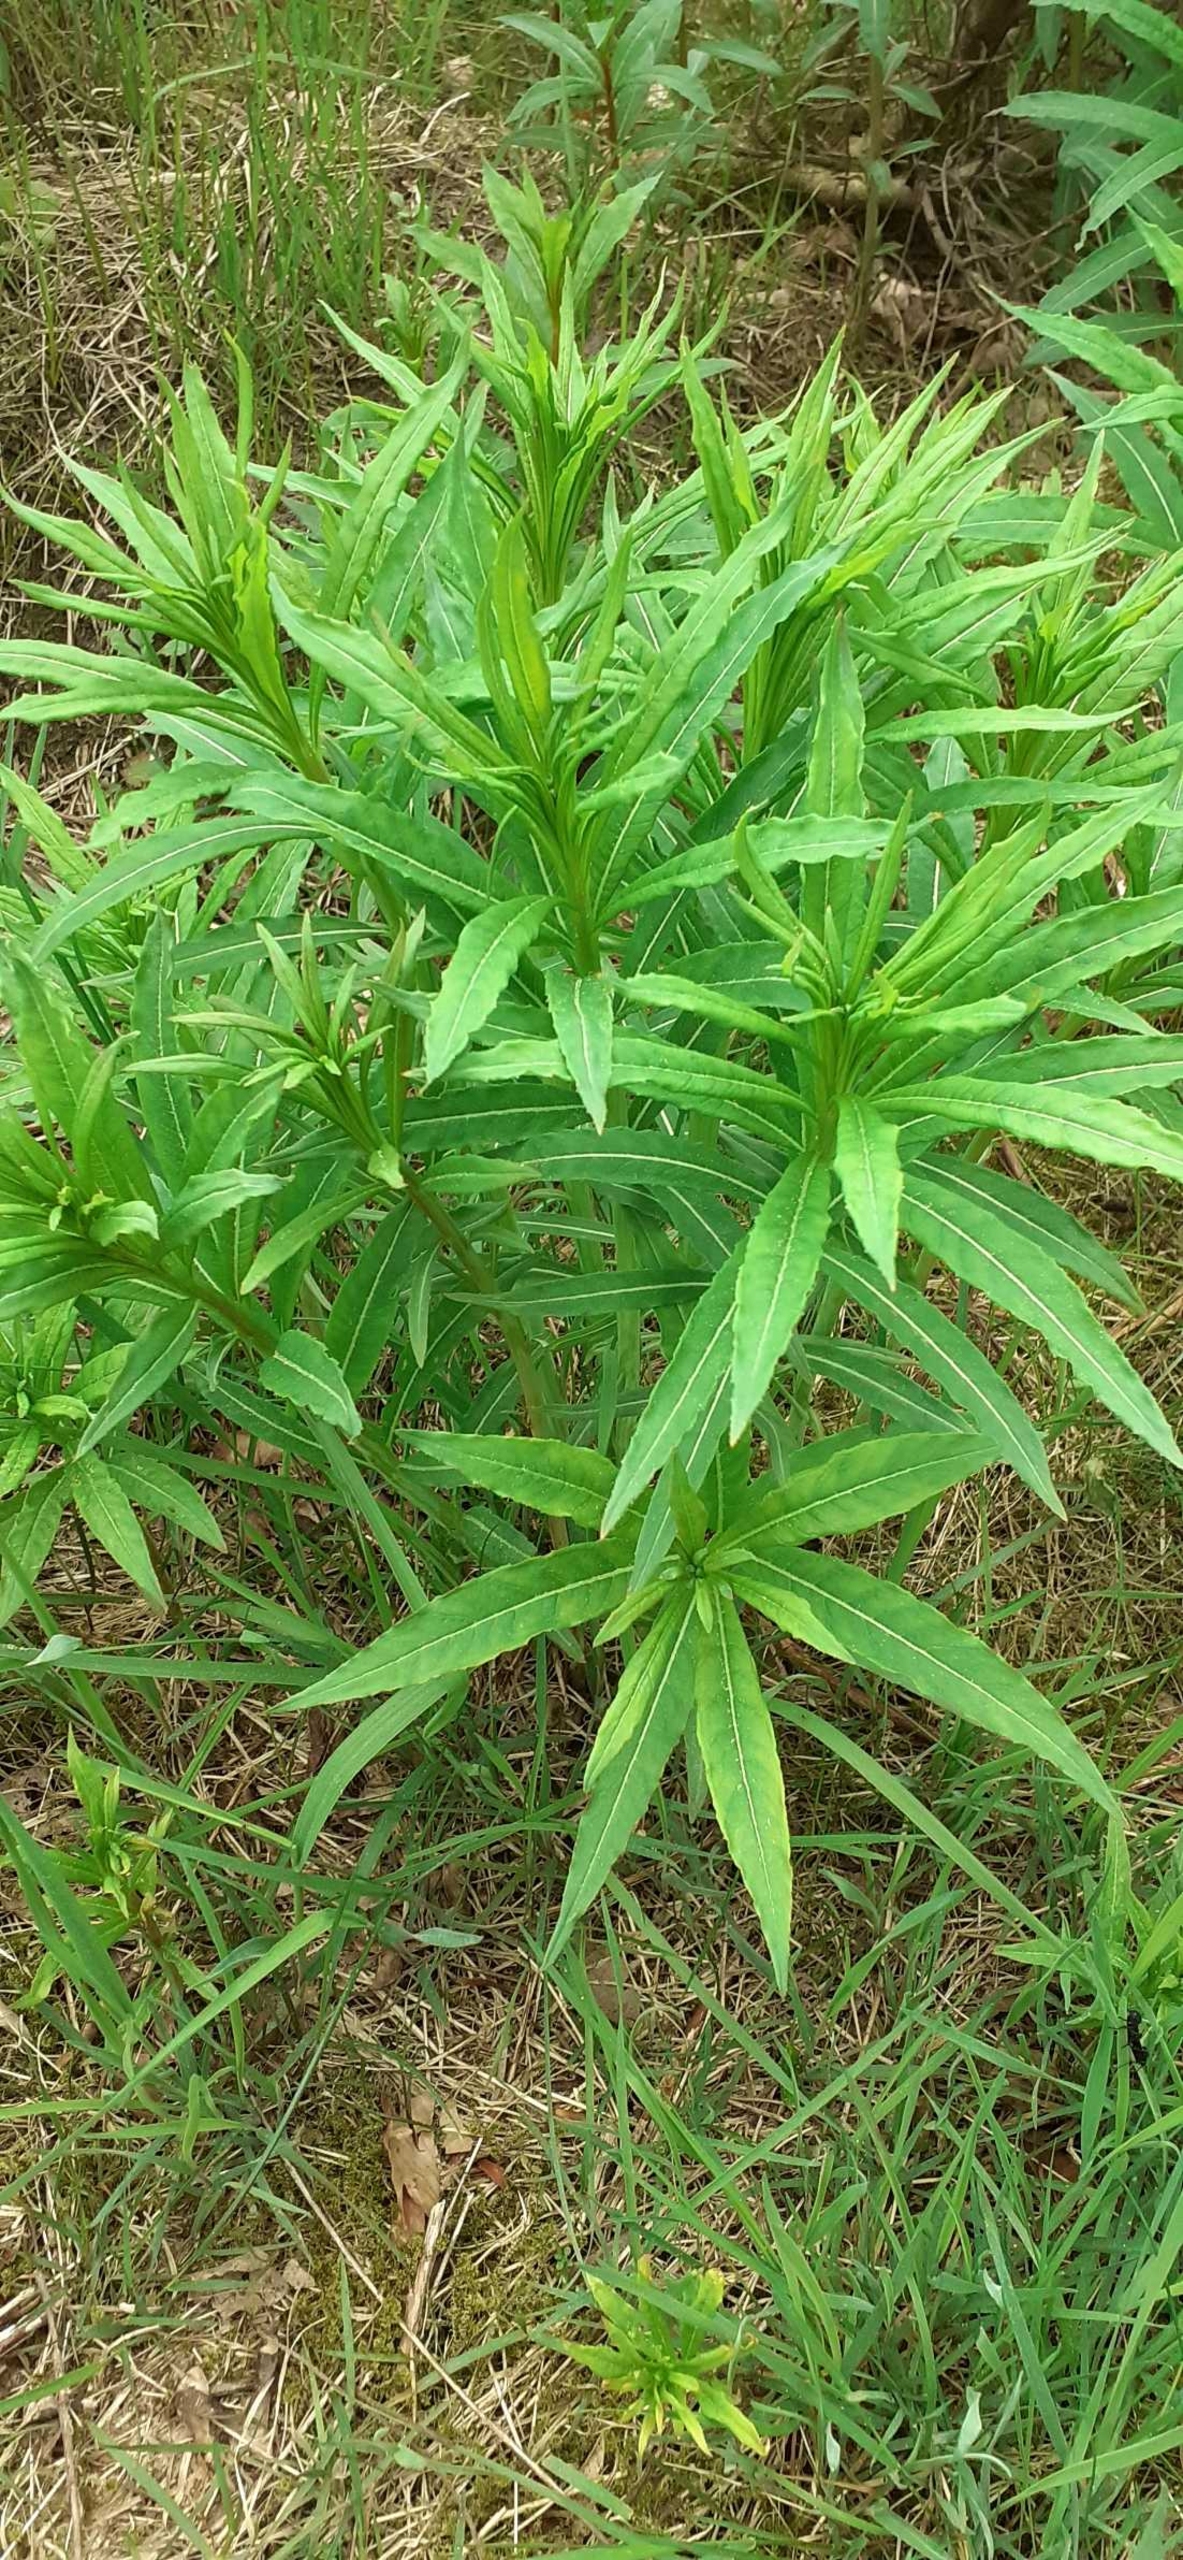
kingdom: Plantae
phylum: Tracheophyta
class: Magnoliopsida
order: Myrtales
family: Onagraceae
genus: Chamaenerion
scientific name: Chamaenerion angustifolium
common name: Gederams
